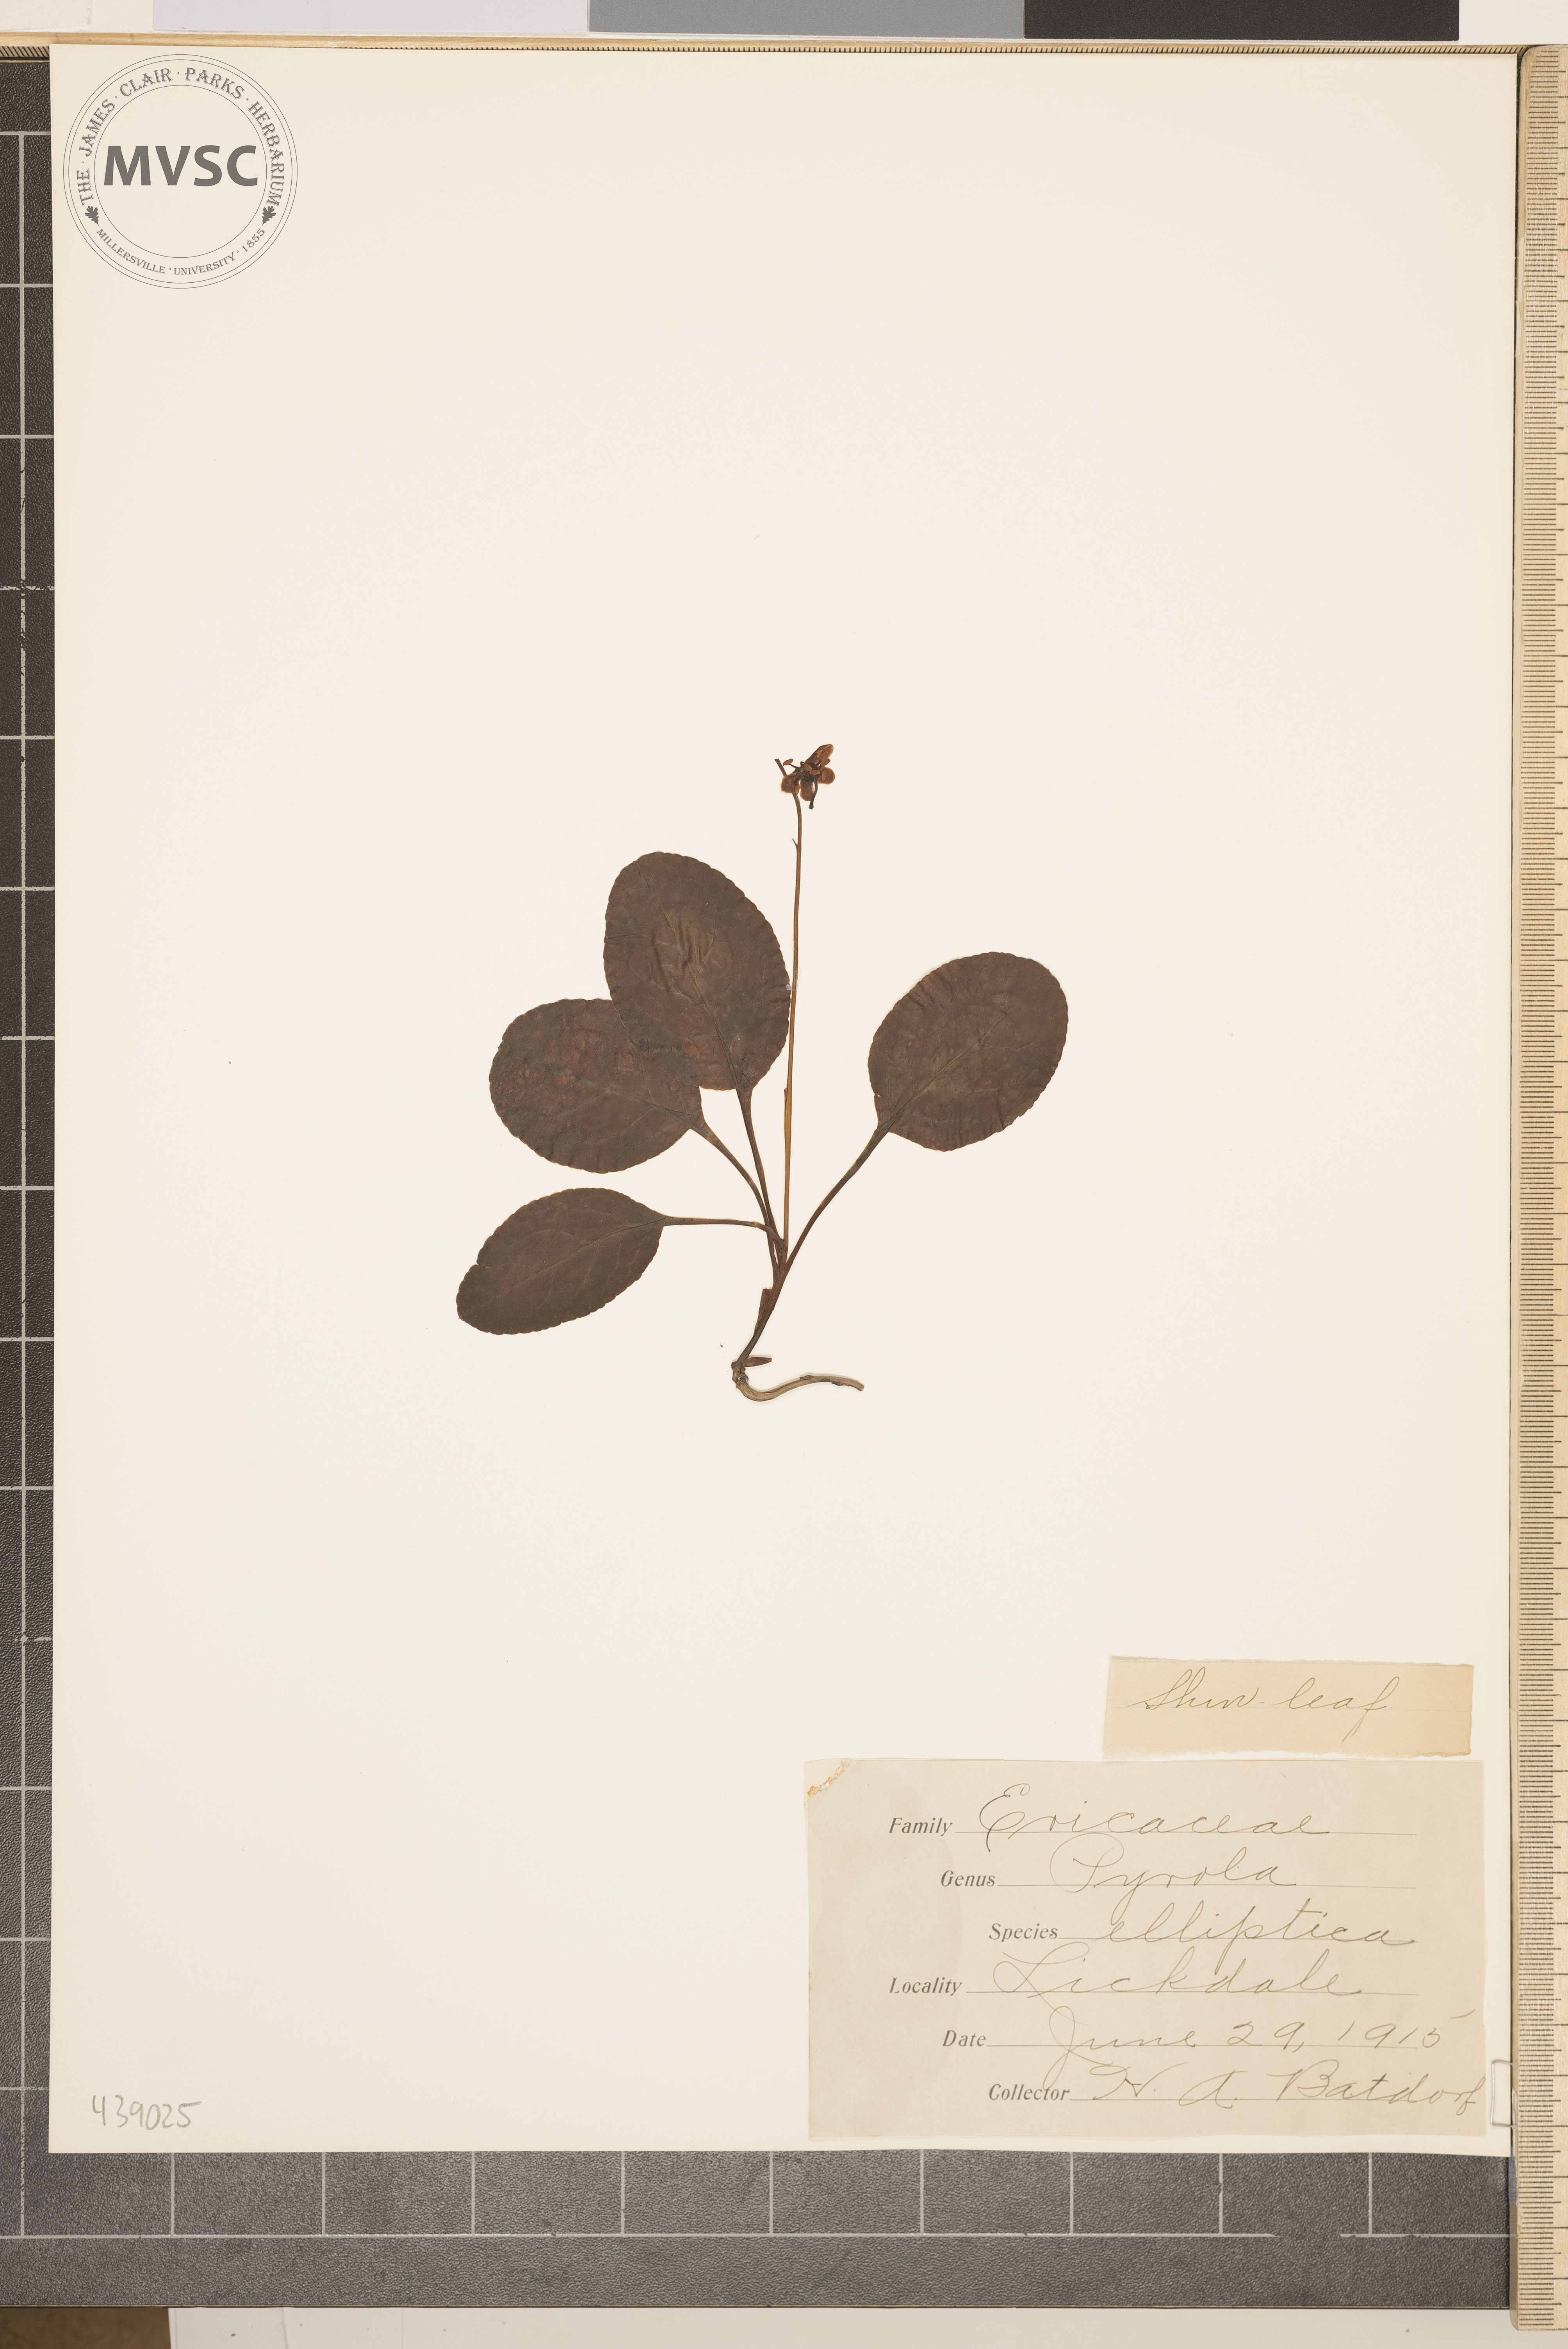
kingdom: Plantae
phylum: Tracheophyta
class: Magnoliopsida
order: Ericales
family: Ericaceae
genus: Pyrola
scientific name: Pyrola elliptica
